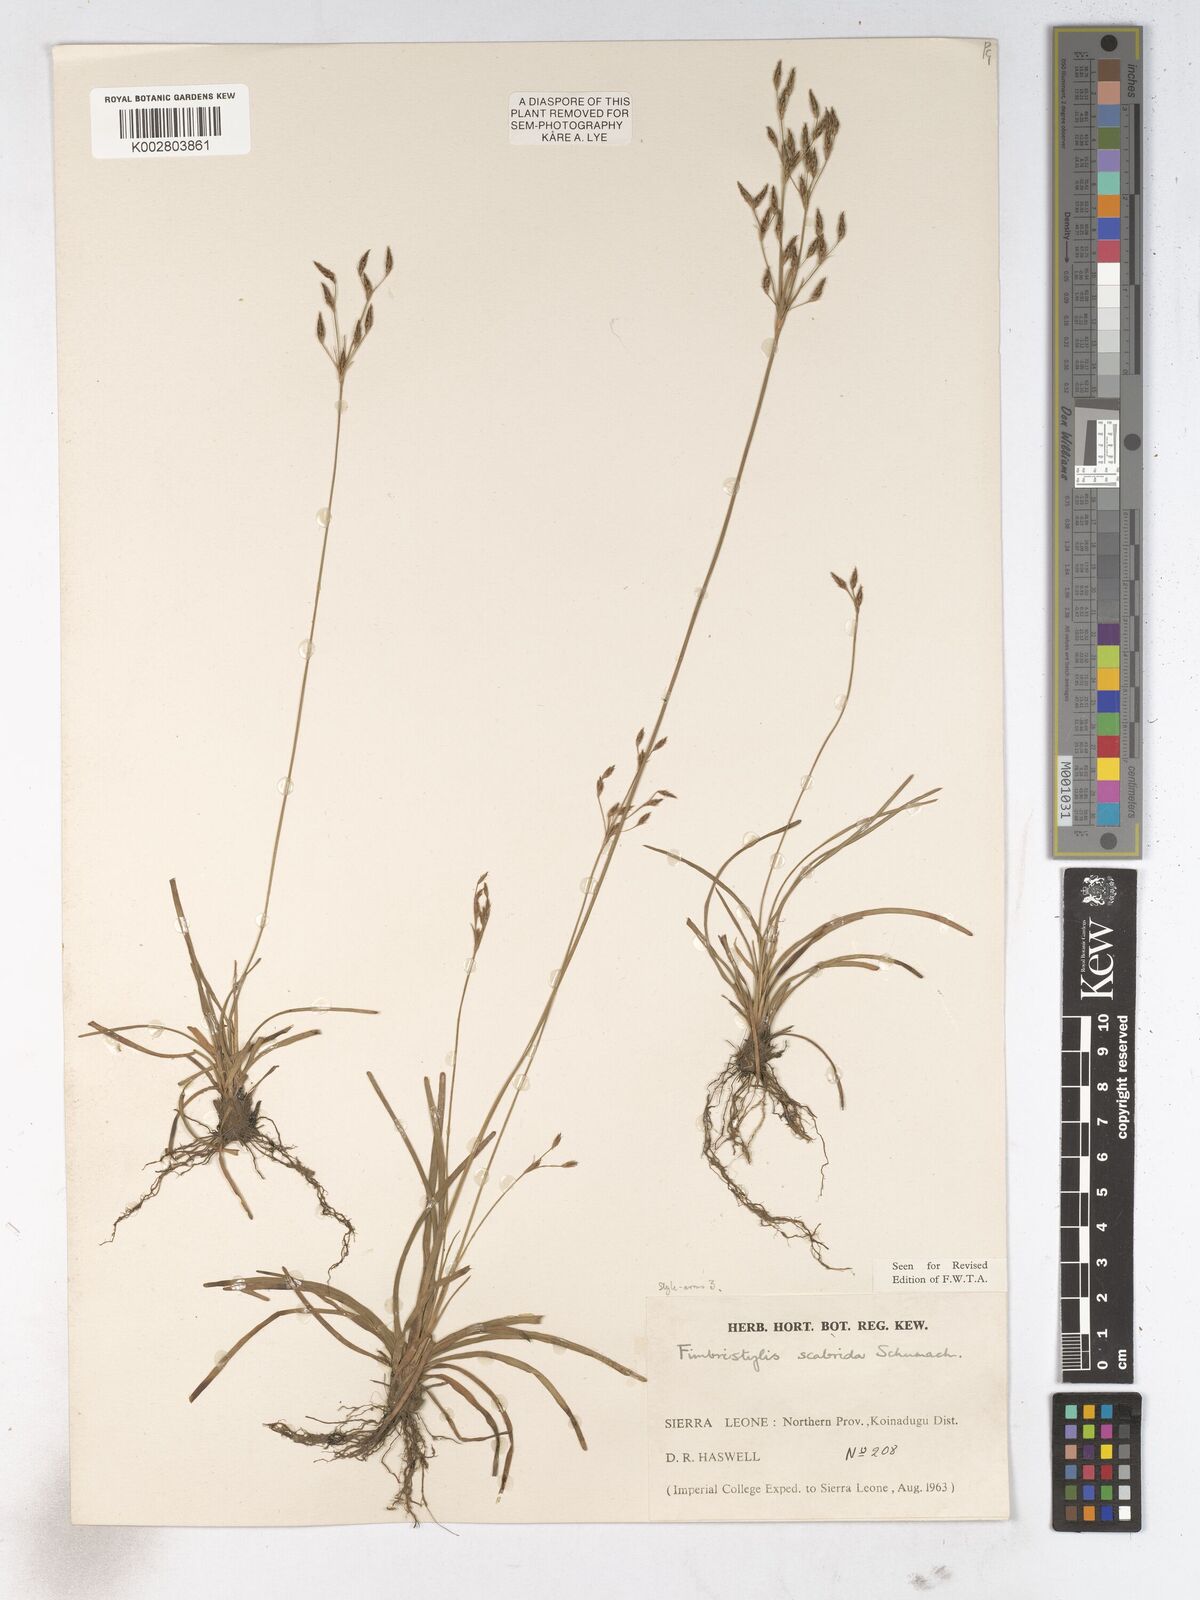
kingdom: Plantae
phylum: Tracheophyta
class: Liliopsida
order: Poales
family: Cyperaceae
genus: Fimbristylis
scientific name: Fimbristylis scabrida
